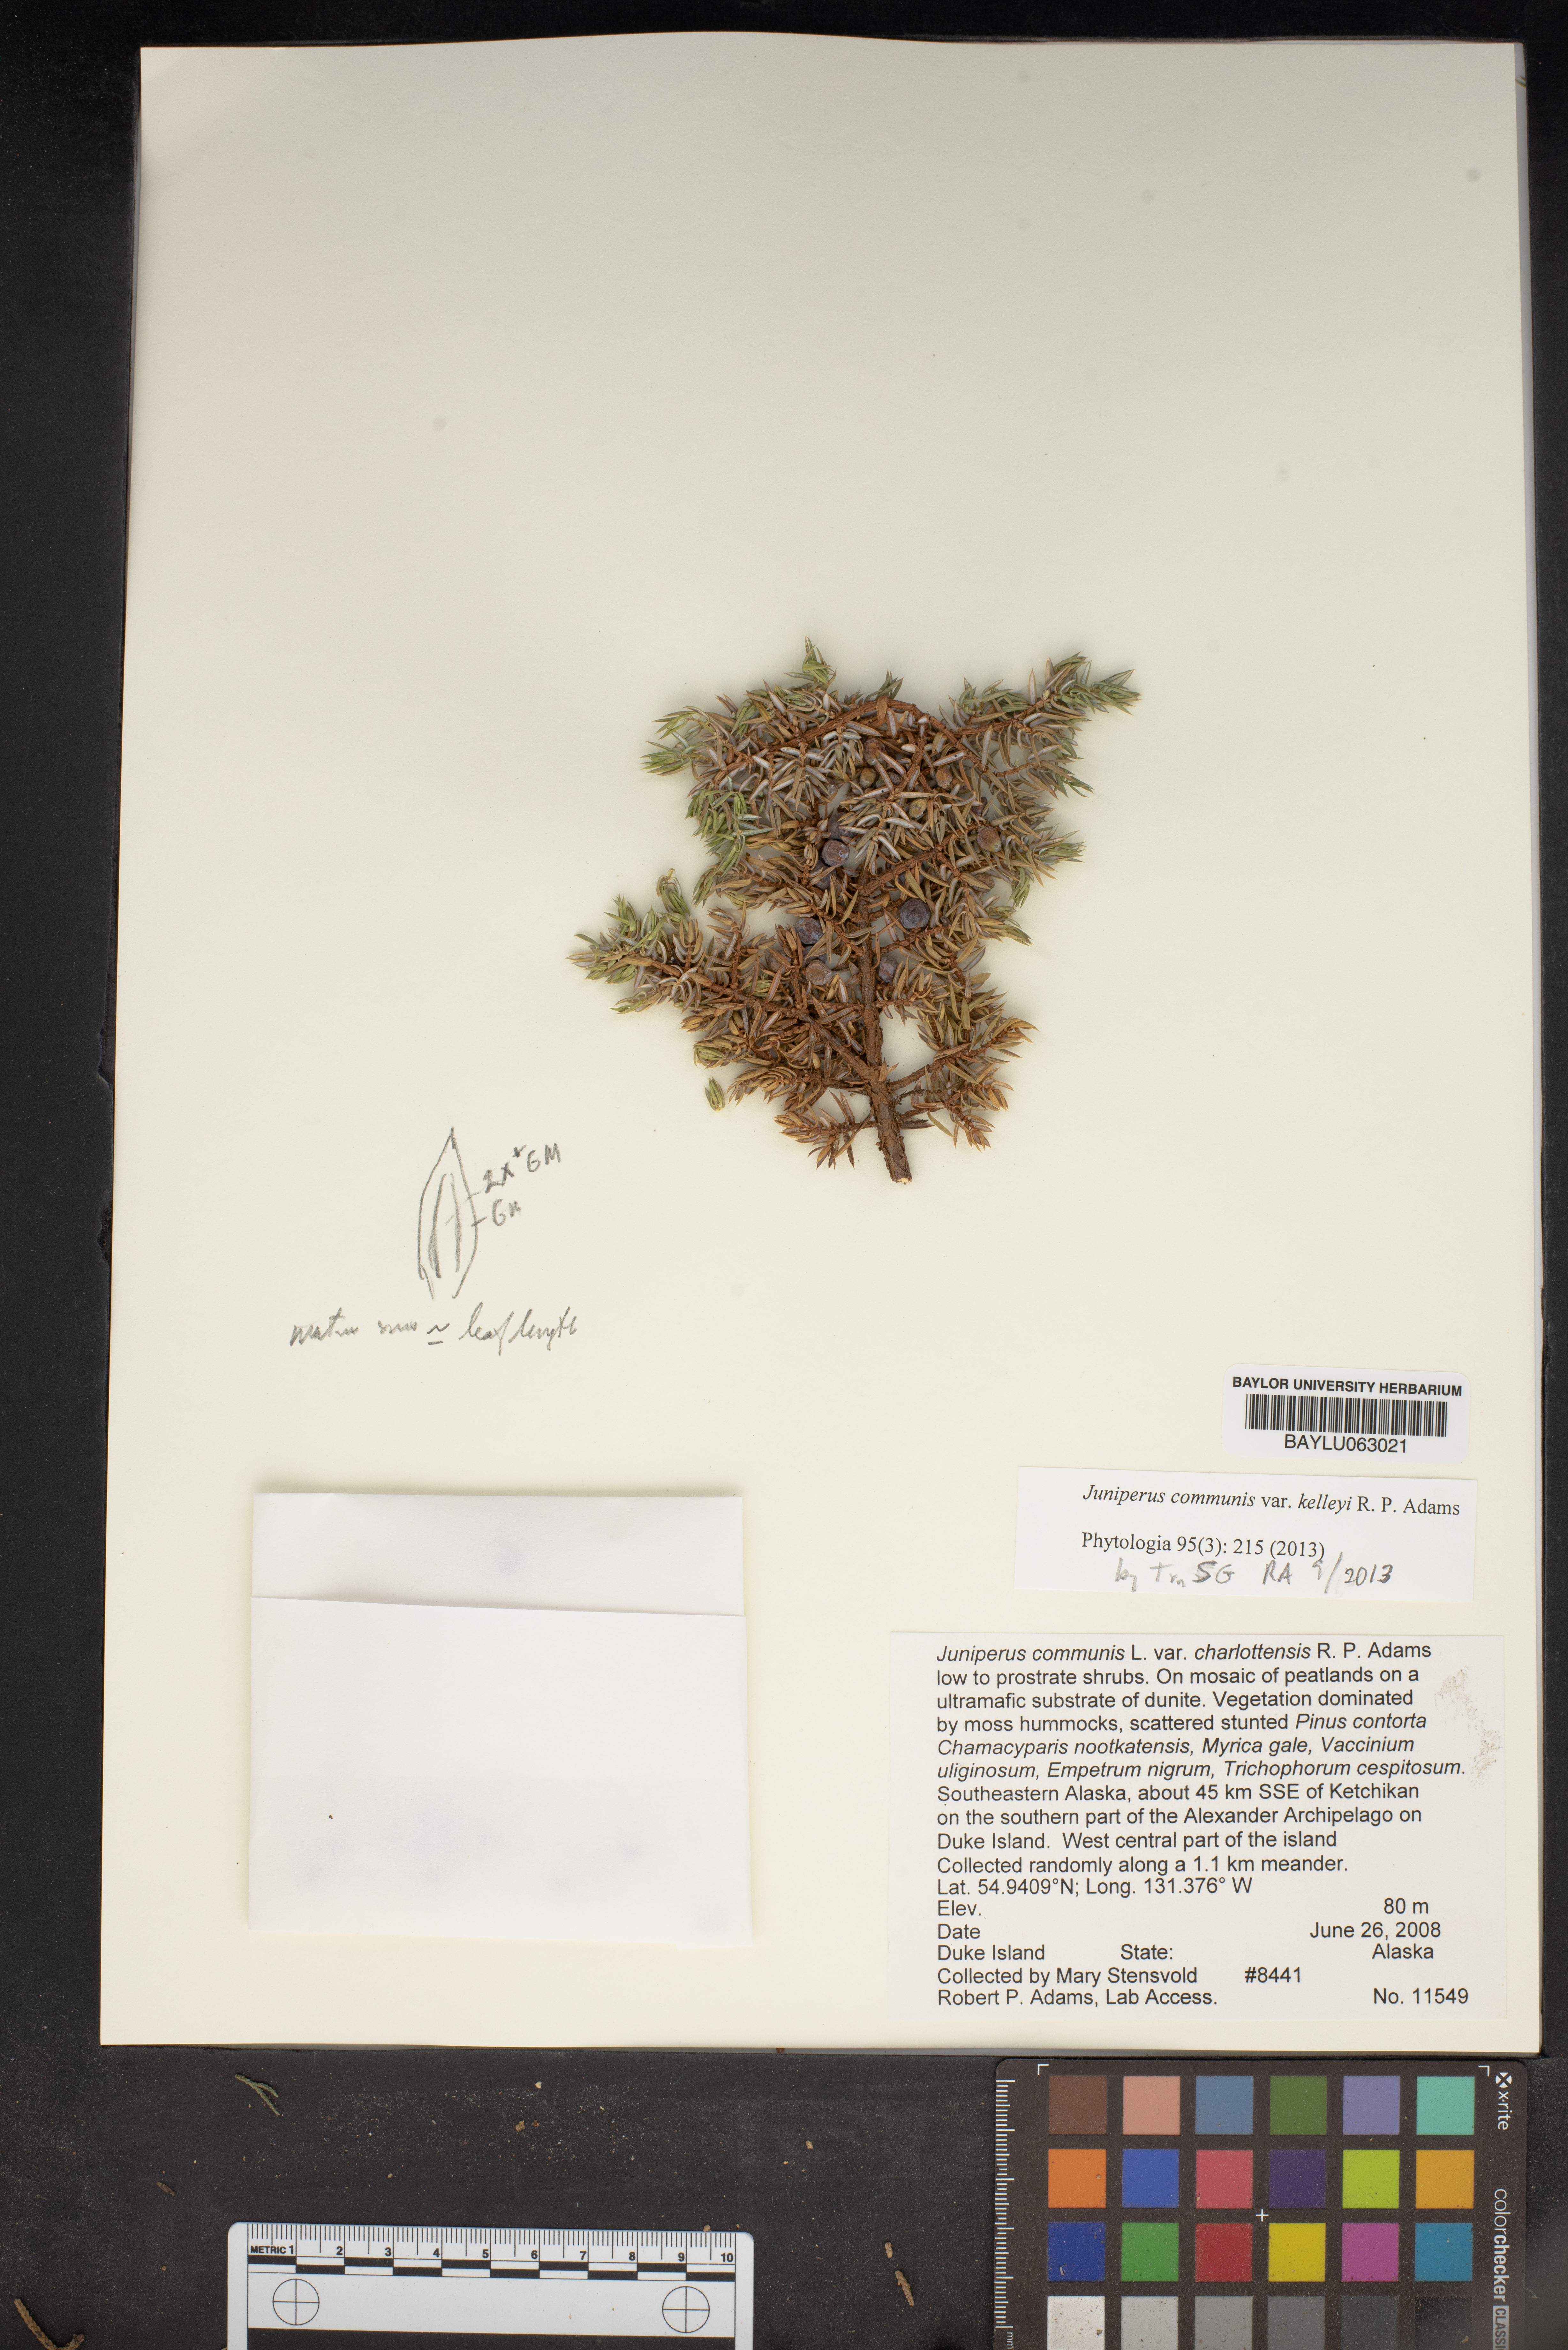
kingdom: Plantae
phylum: Tracheophyta
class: Pinopsida
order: Pinales
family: Cupressaceae
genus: Juniperus
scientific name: Juniperus communis
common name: Common juniper
